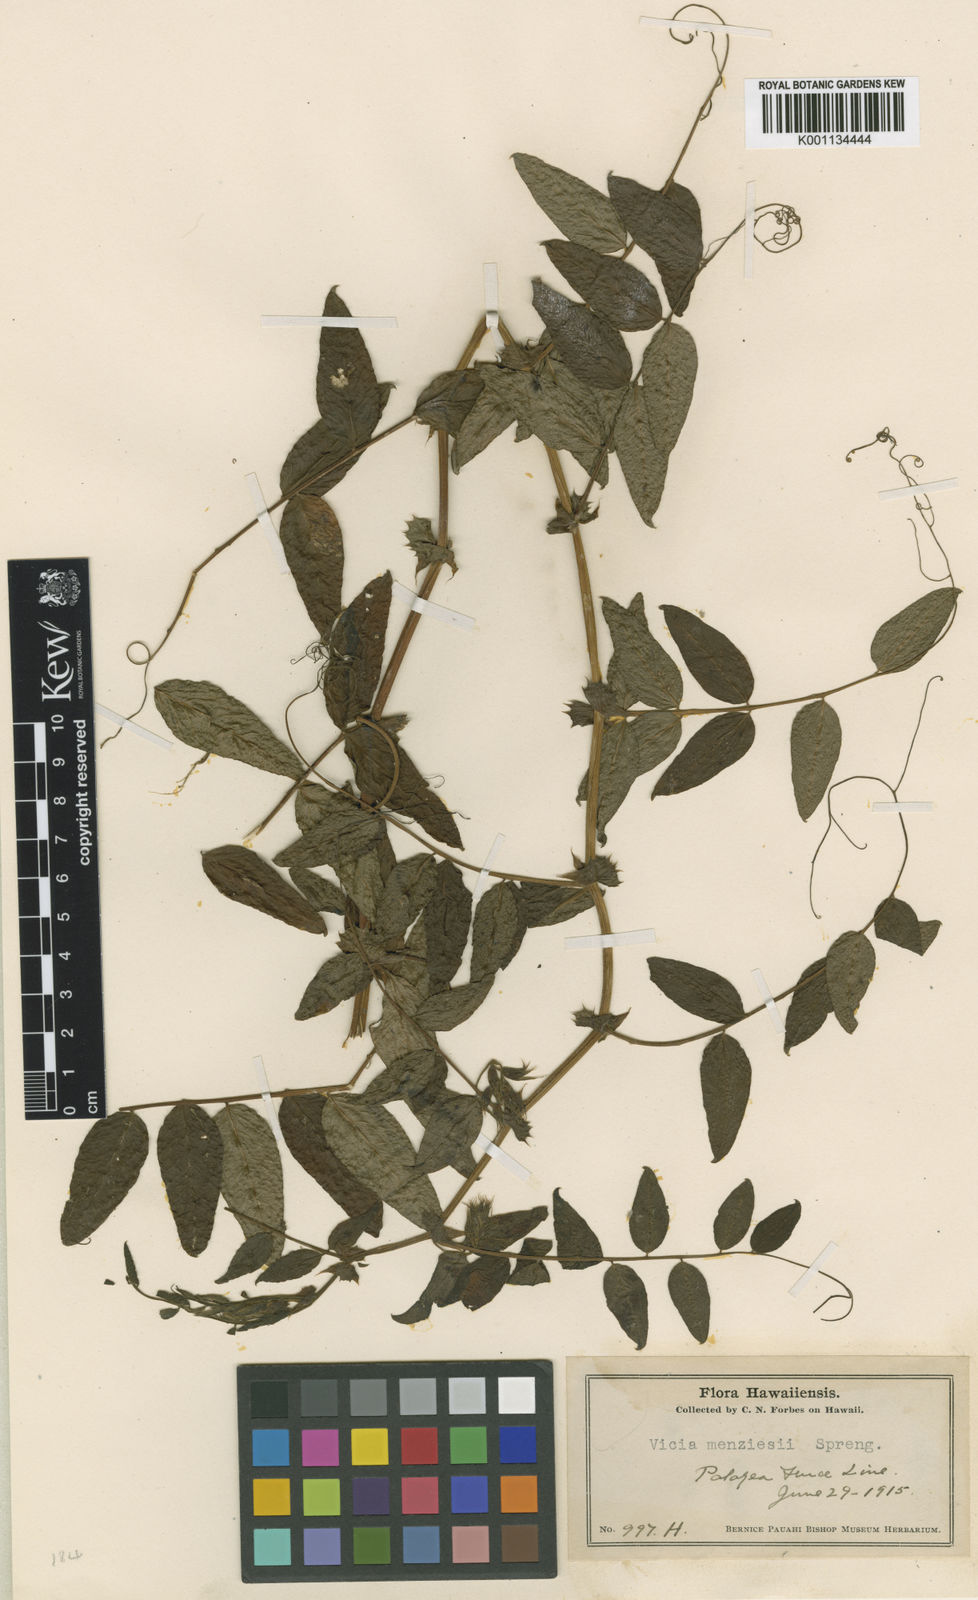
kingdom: Plantae
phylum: Tracheophyta
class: Magnoliopsida
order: Fabales
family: Fabaceae
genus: Vicia
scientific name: Vicia menziesii
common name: Hawaiian vetch
